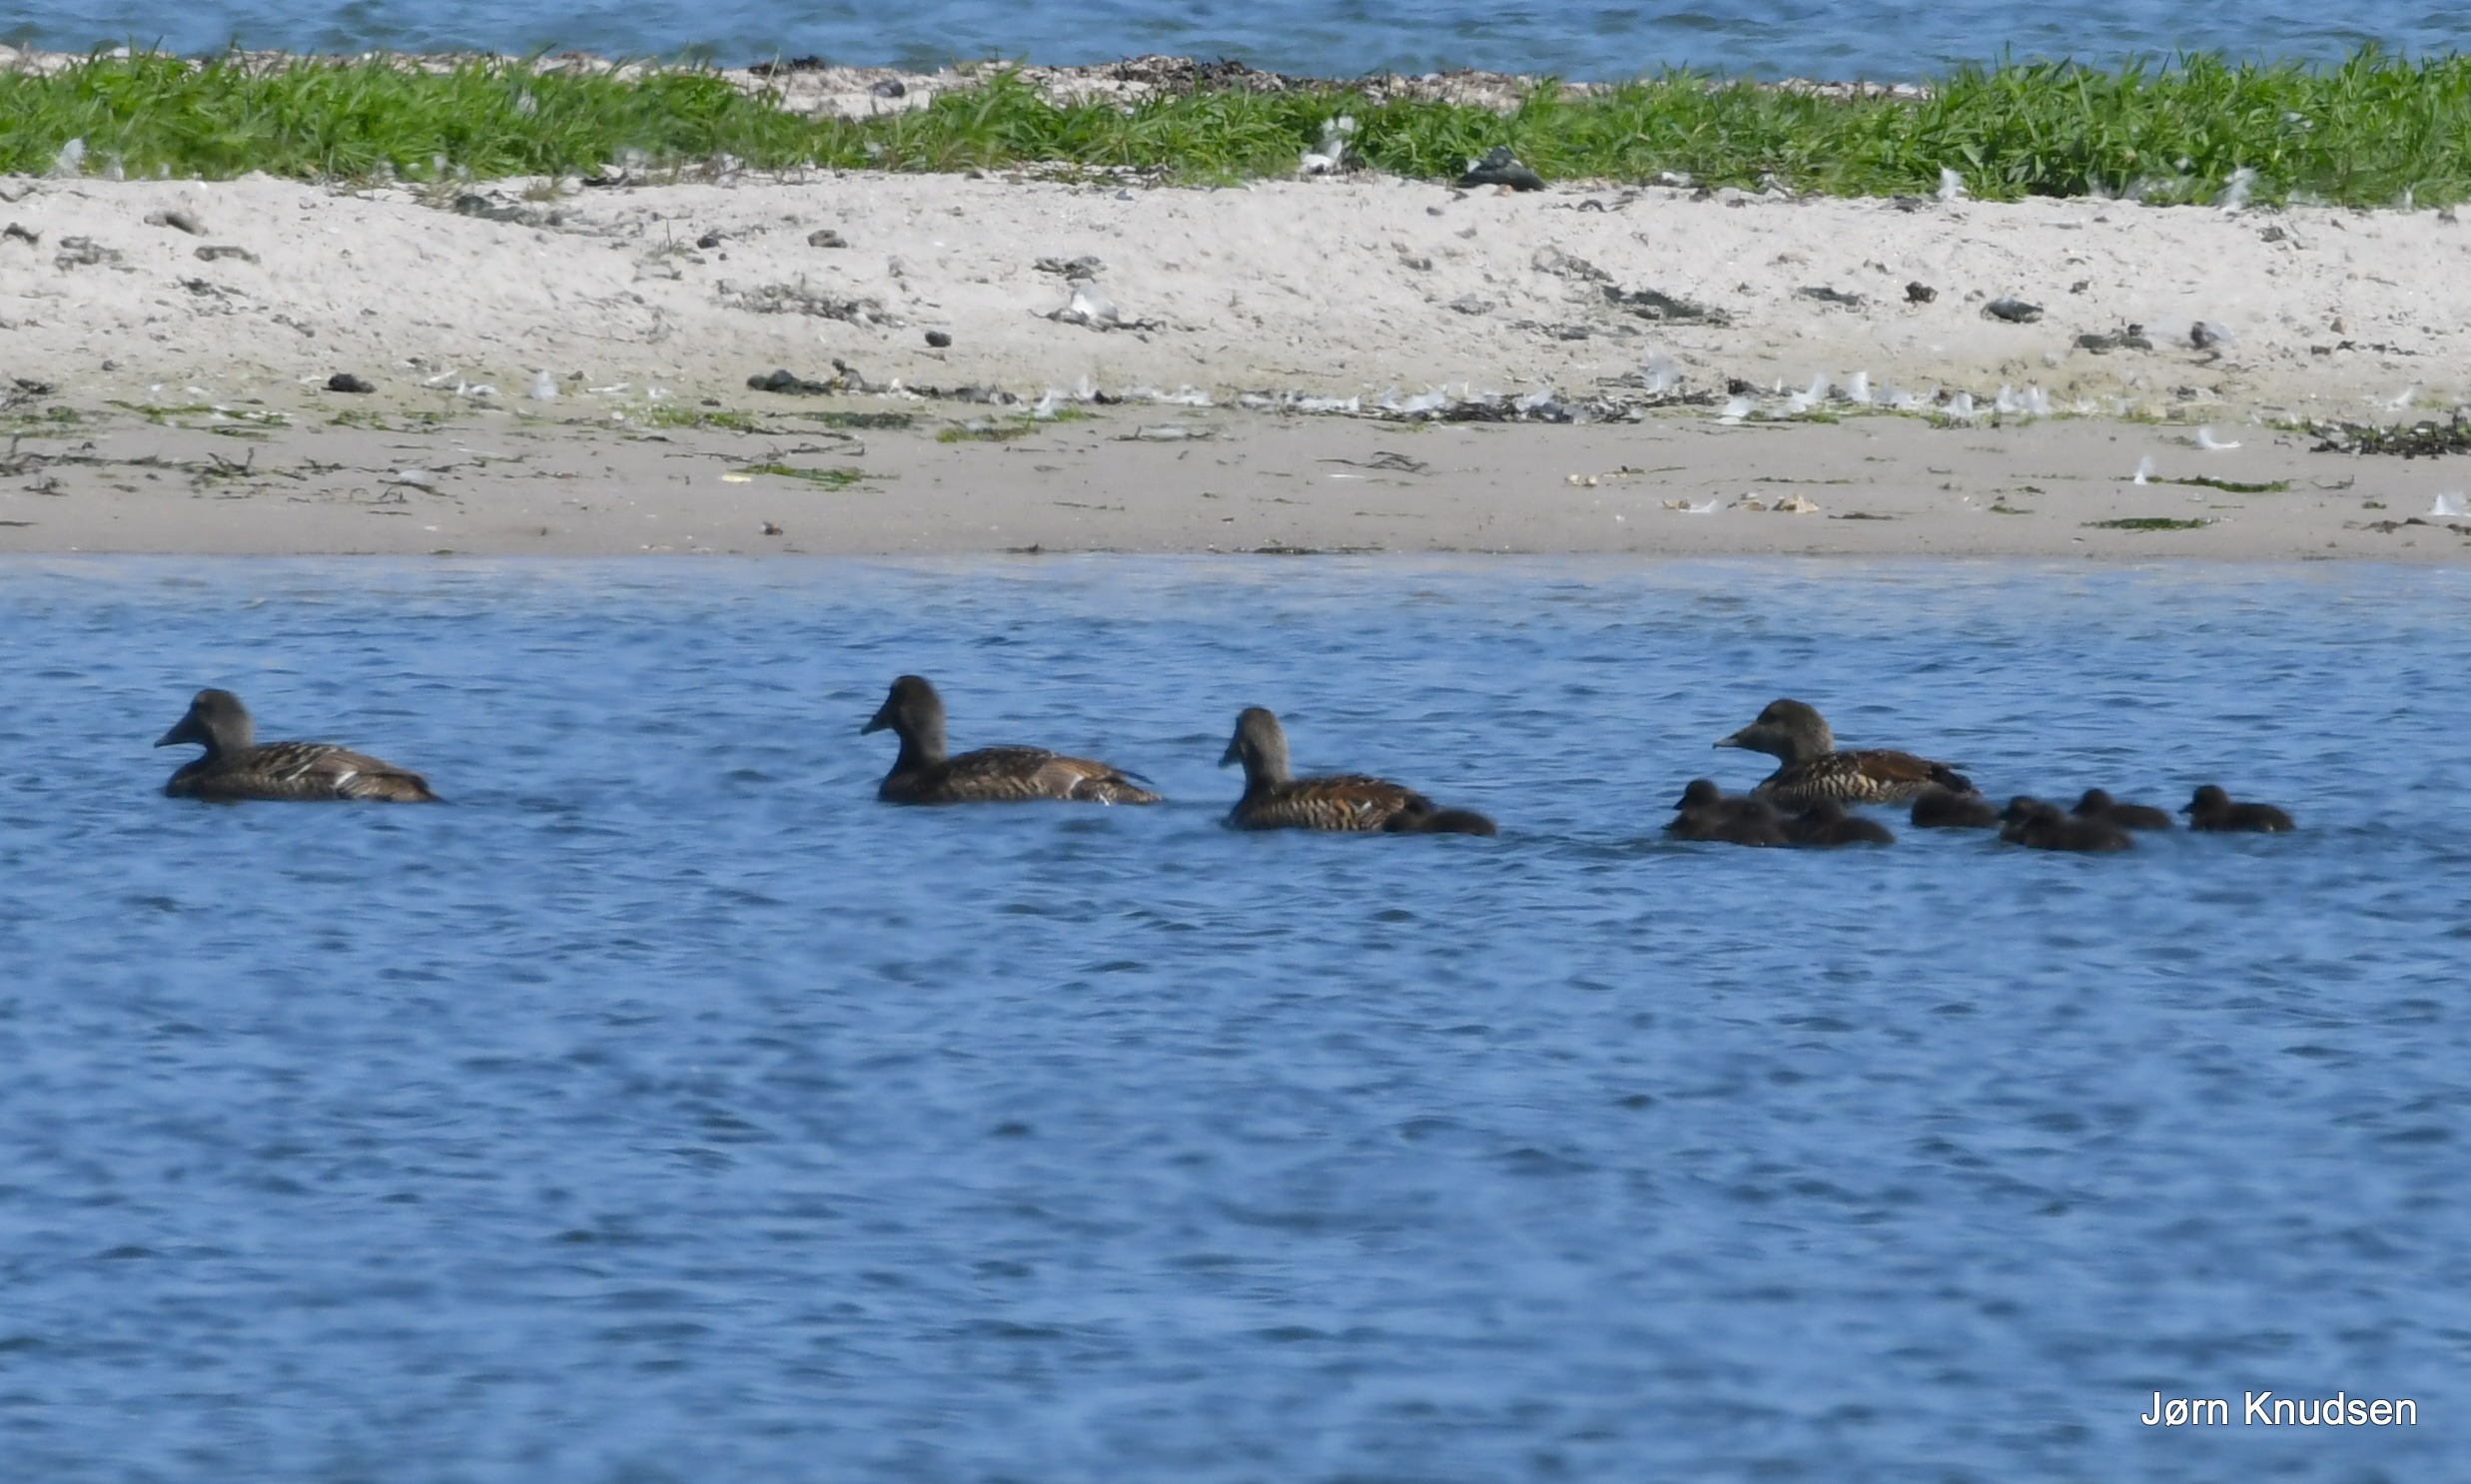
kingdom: Animalia
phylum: Chordata
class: Aves
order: Anseriformes
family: Anatidae
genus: Somateria
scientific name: Somateria mollissima
